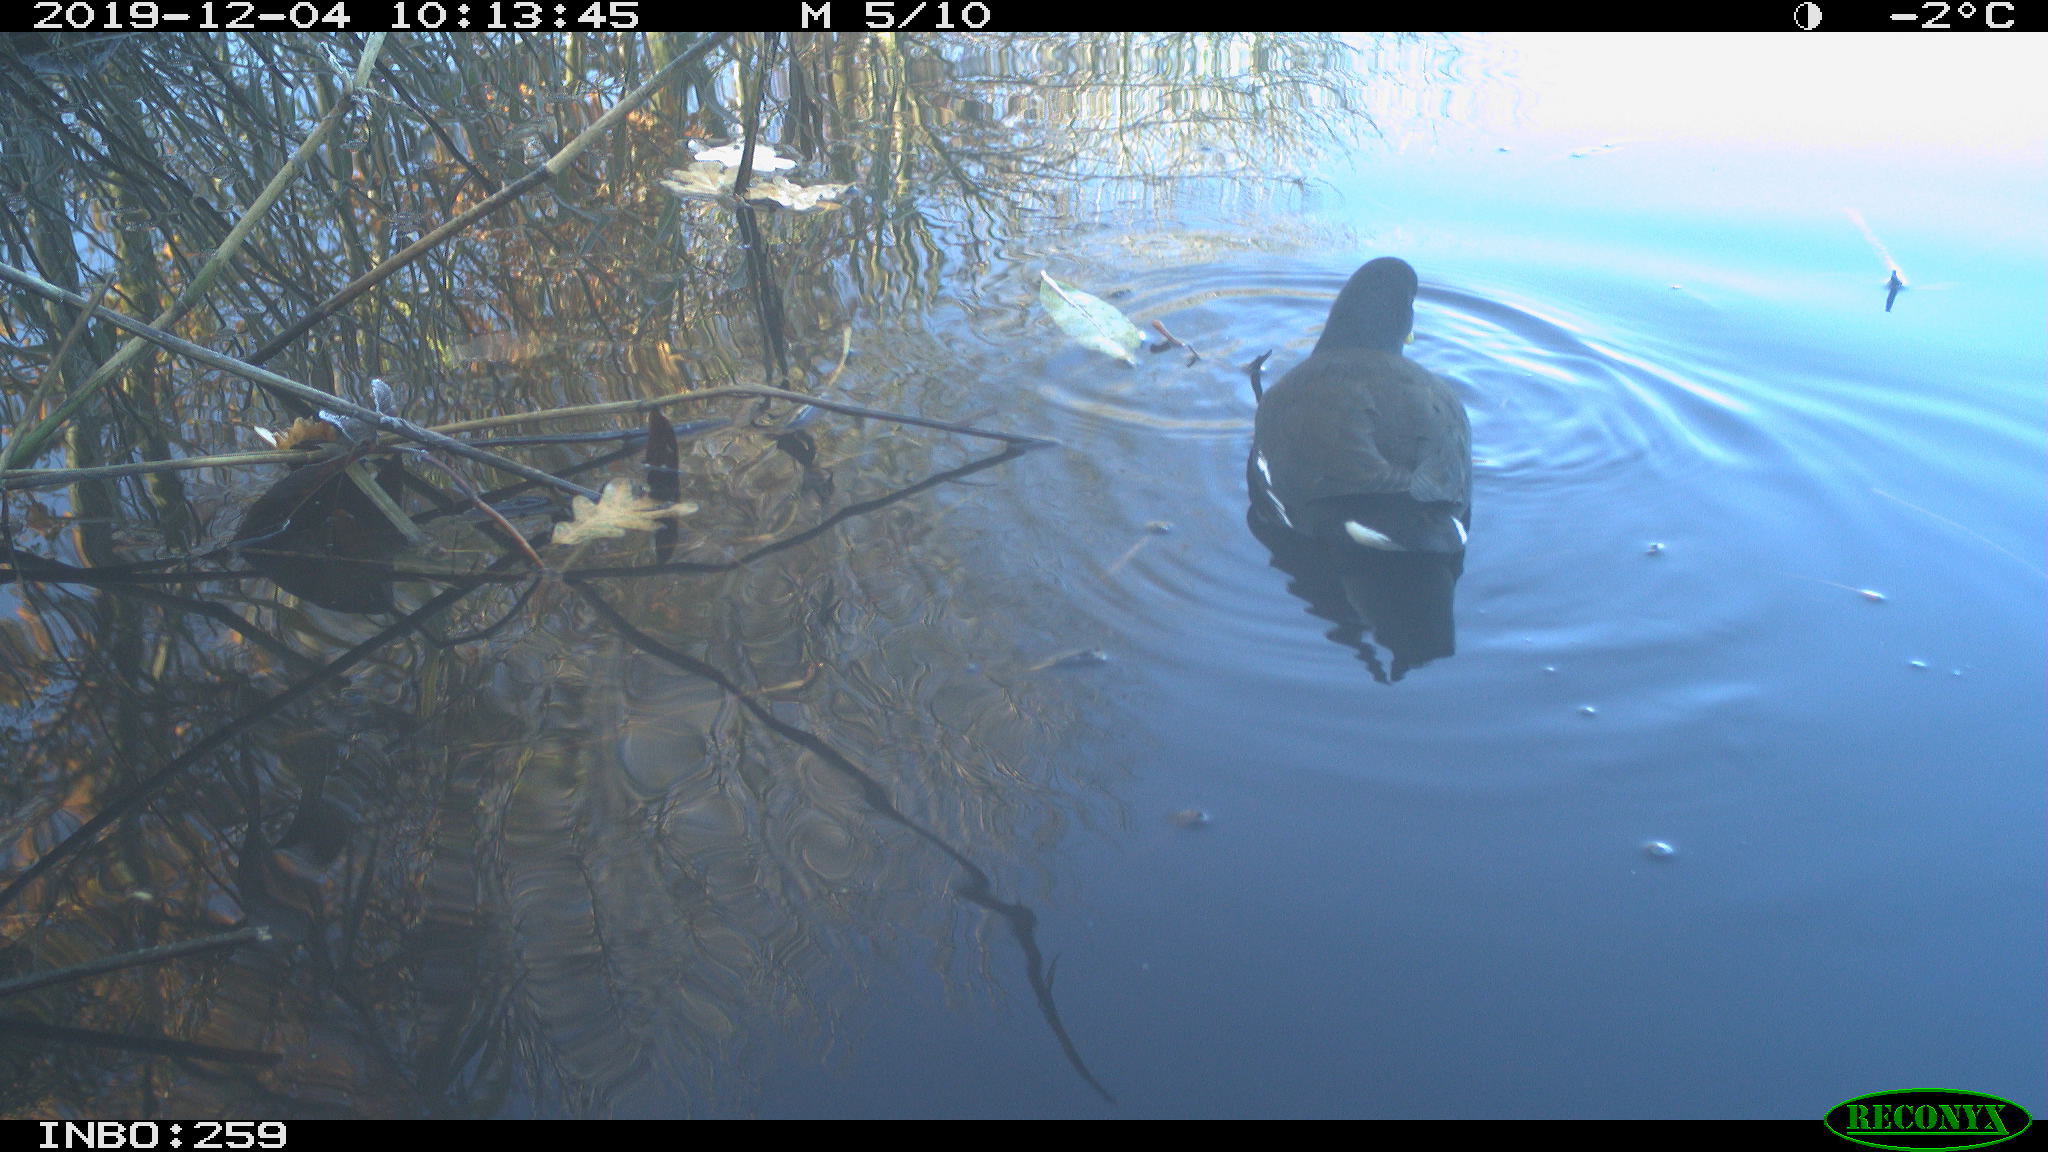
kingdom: Animalia
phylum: Chordata
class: Aves
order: Gruiformes
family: Rallidae
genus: Gallinula
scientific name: Gallinula chloropus
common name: Common moorhen
